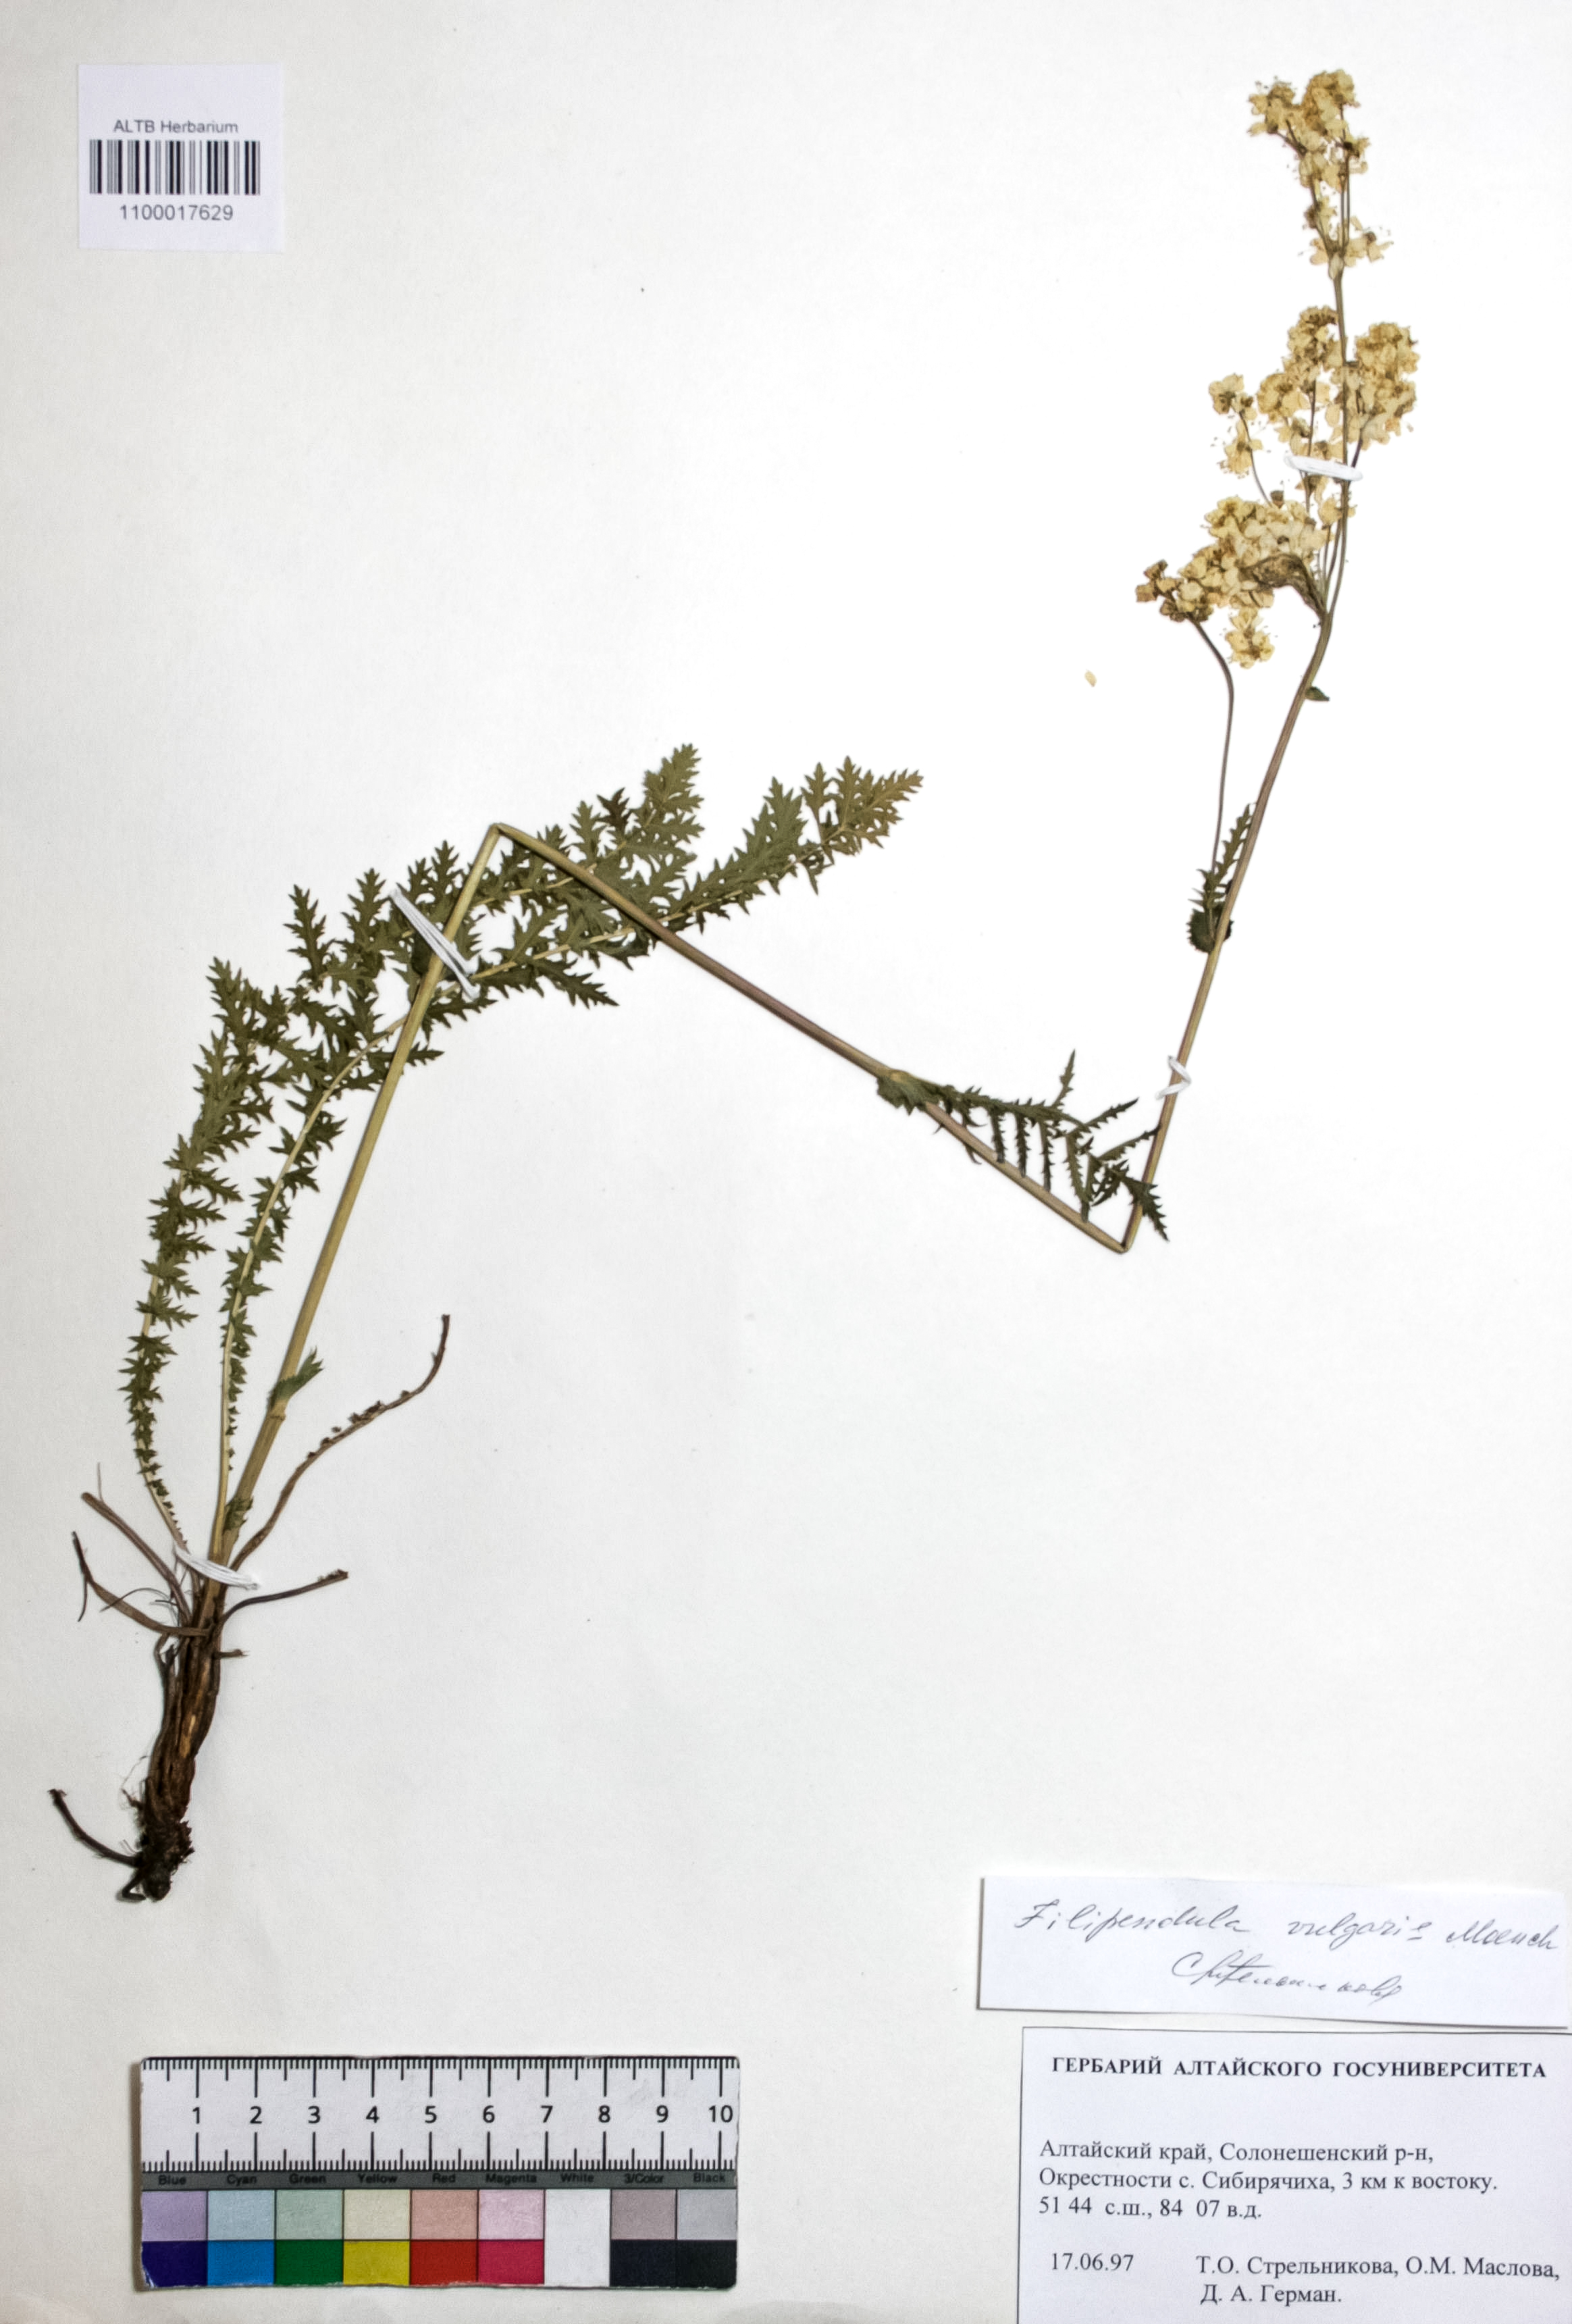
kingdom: Plantae
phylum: Tracheophyta
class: Magnoliopsida
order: Rosales
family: Rosaceae
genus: Filipendula
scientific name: Filipendula vulgaris
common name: Dropwort
